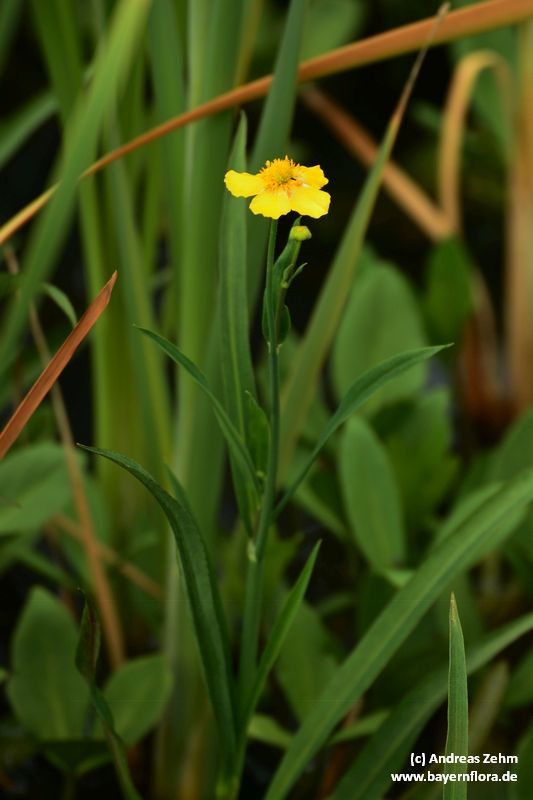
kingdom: Plantae
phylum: Tracheophyta
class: Magnoliopsida
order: Ranunculales
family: Ranunculaceae
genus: Ranunculus
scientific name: Ranunculus lingua
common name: Greater spearwort
